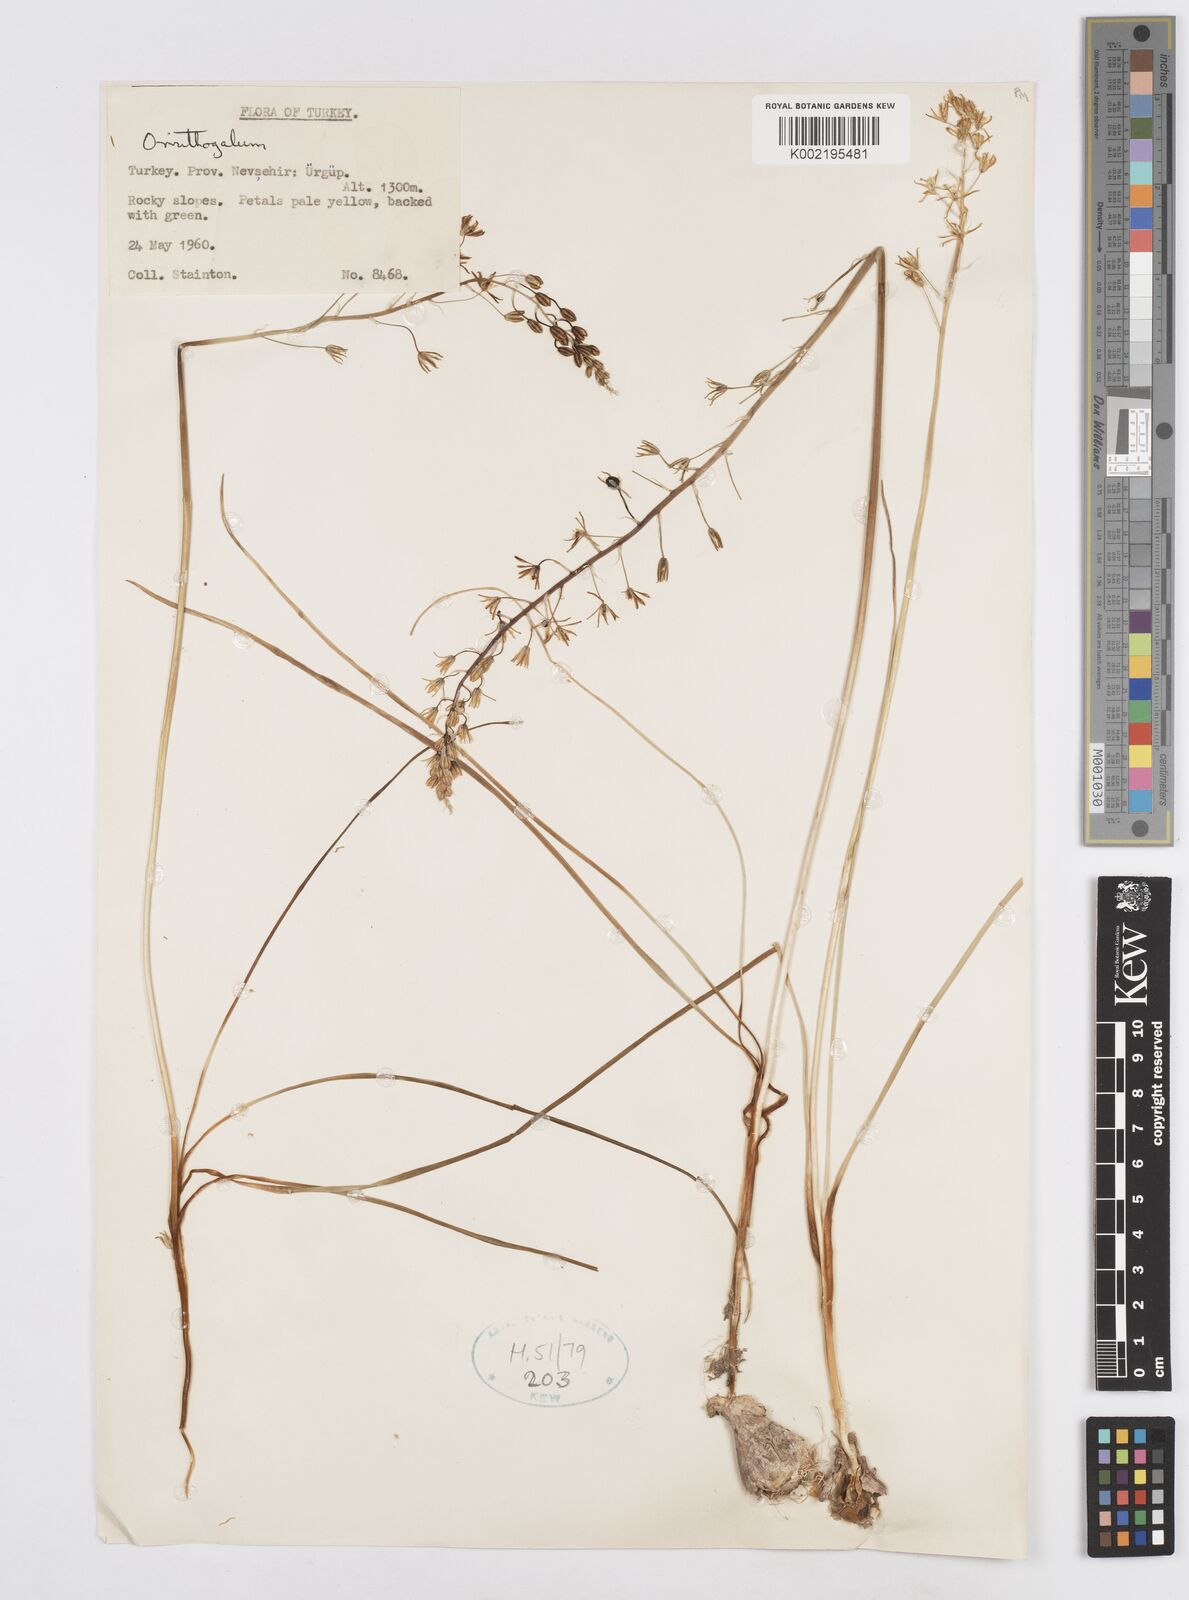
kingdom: Plantae
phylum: Tracheophyta
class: Liliopsida
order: Asparagales
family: Asparagaceae
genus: Ornithogalum
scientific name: Ornithogalum
